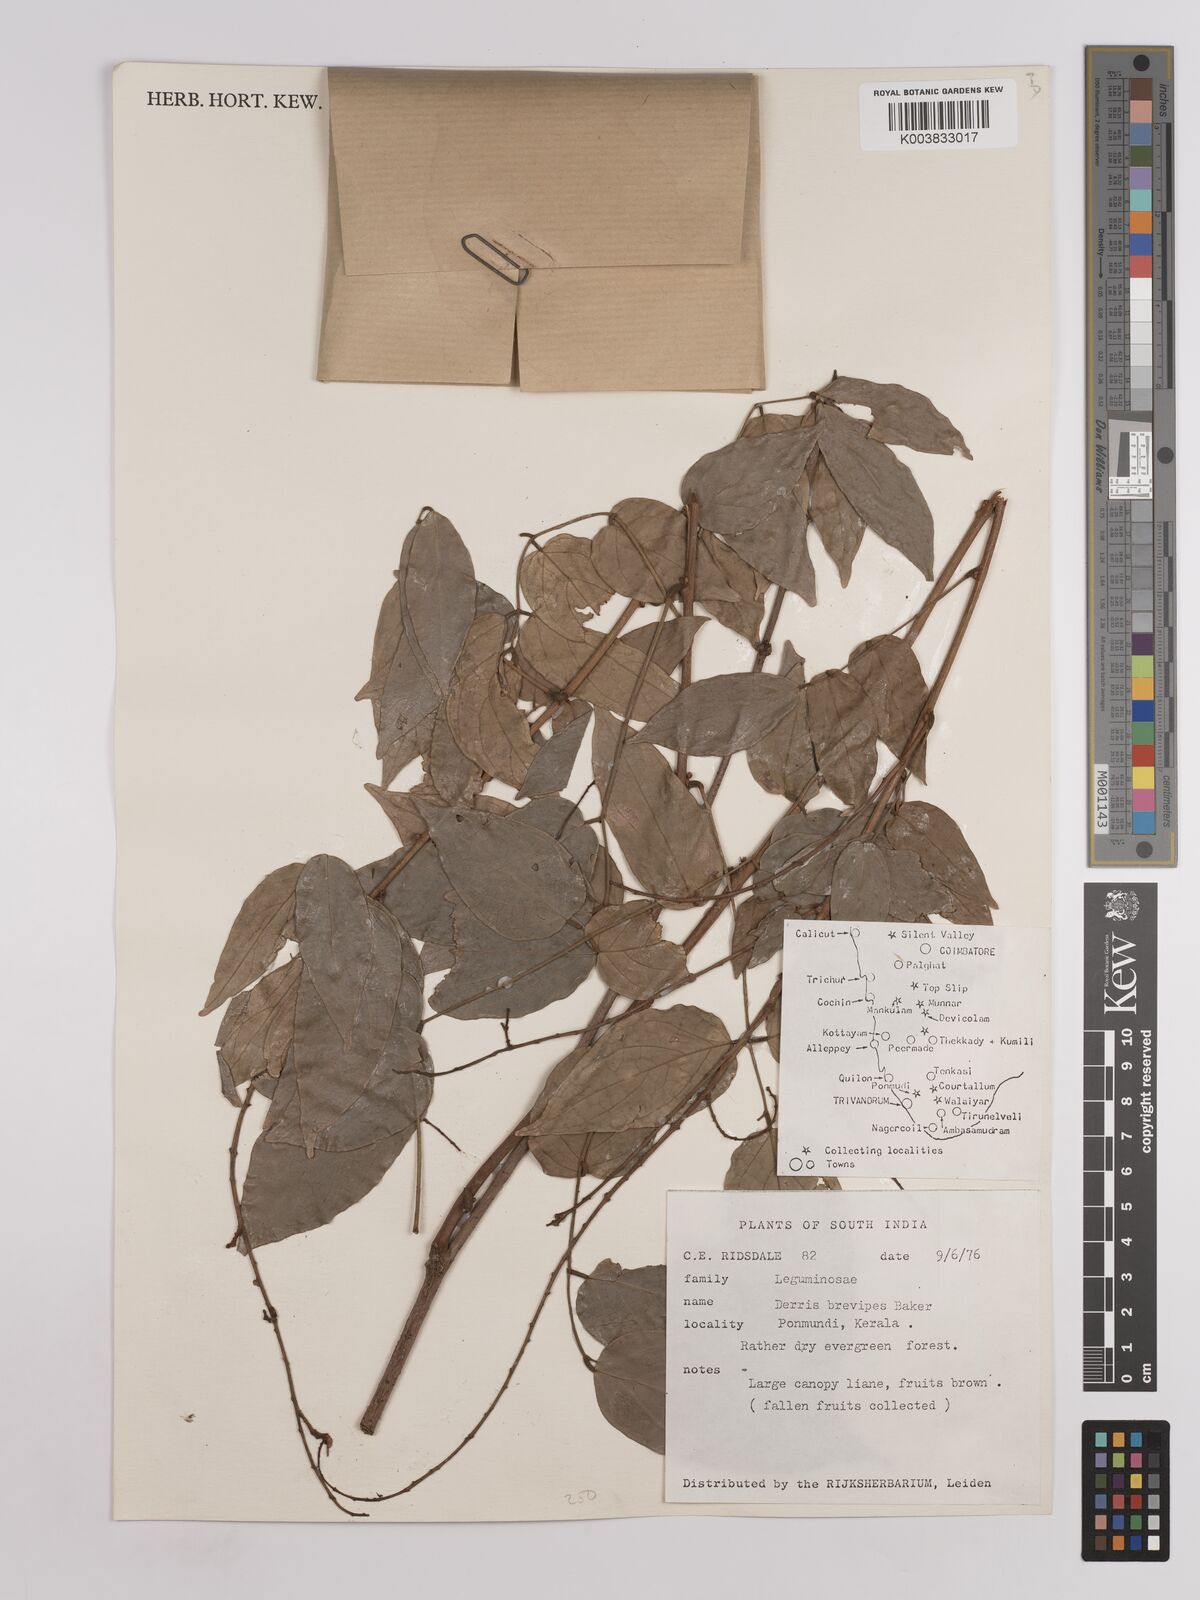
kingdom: Plantae
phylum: Tracheophyta
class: Magnoliopsida
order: Fabales
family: Fabaceae
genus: Derris
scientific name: Derris brevipes
